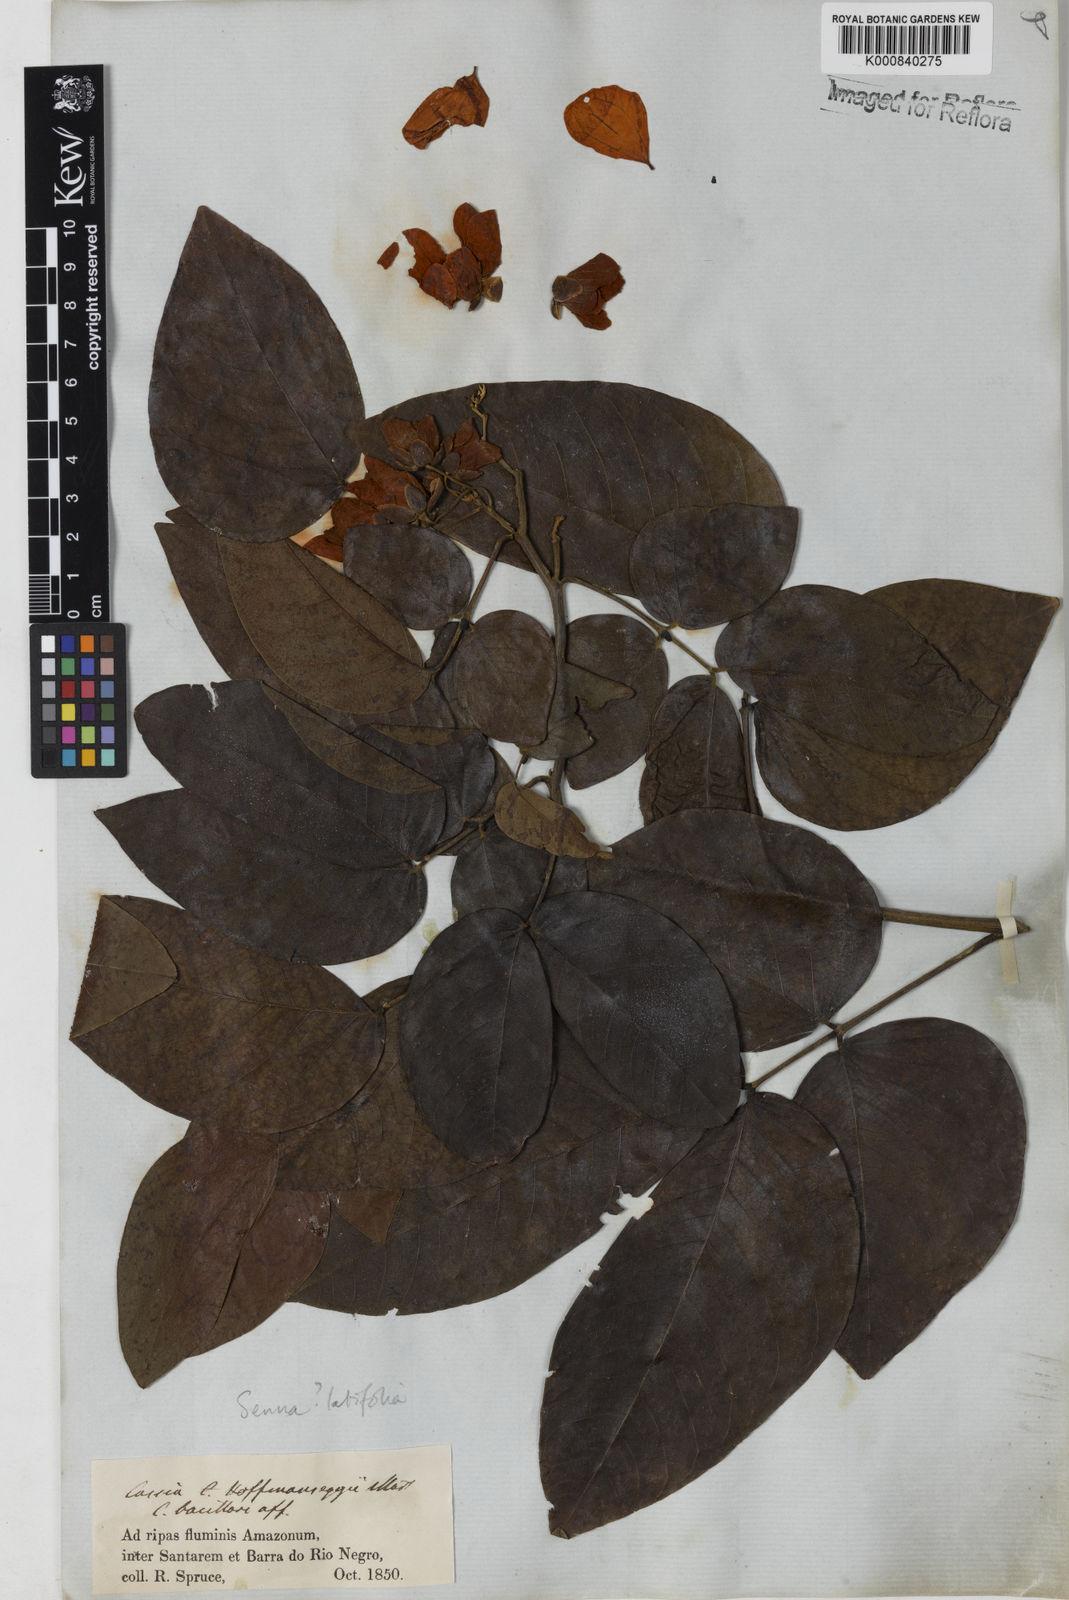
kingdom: Plantae
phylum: Tracheophyta
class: Magnoliopsida
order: Fabales
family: Fabaceae
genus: Senna
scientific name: Senna latifolia
